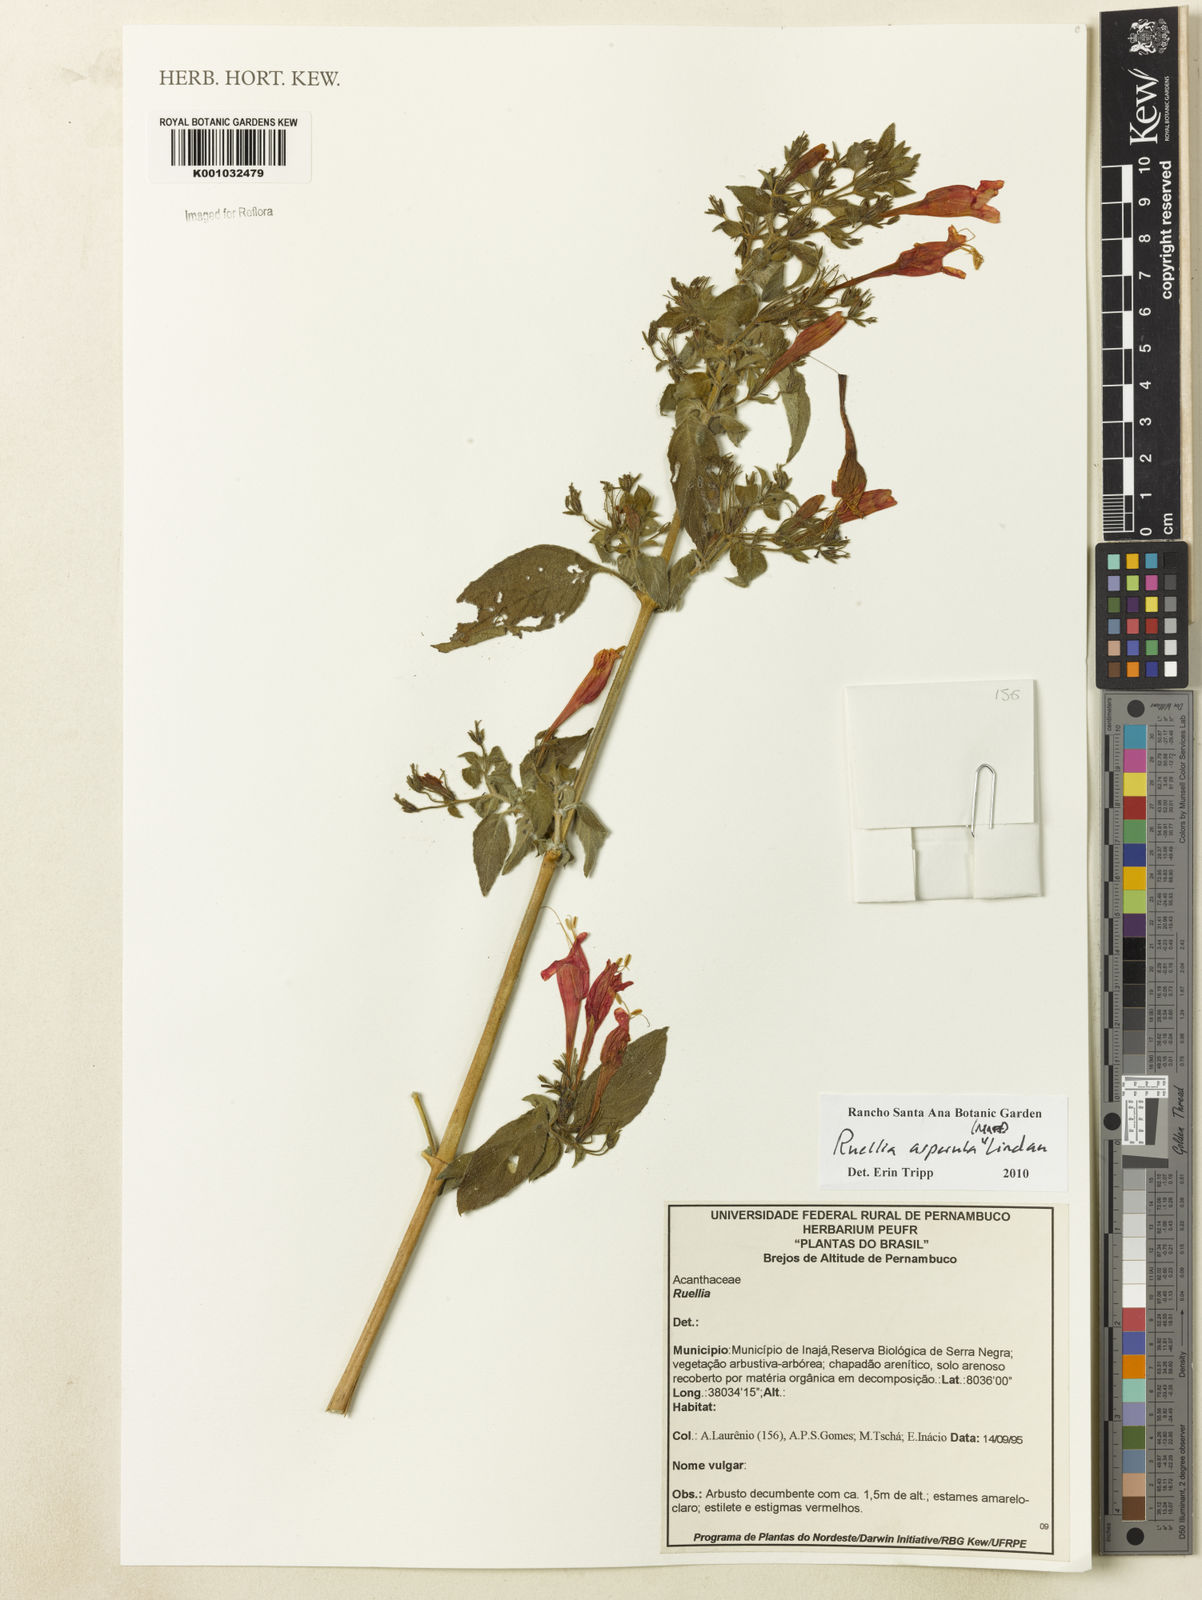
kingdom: Plantae
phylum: Tracheophyta
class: Magnoliopsida
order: Lamiales
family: Acanthaceae
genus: Ruellia
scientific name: Ruellia asperula
